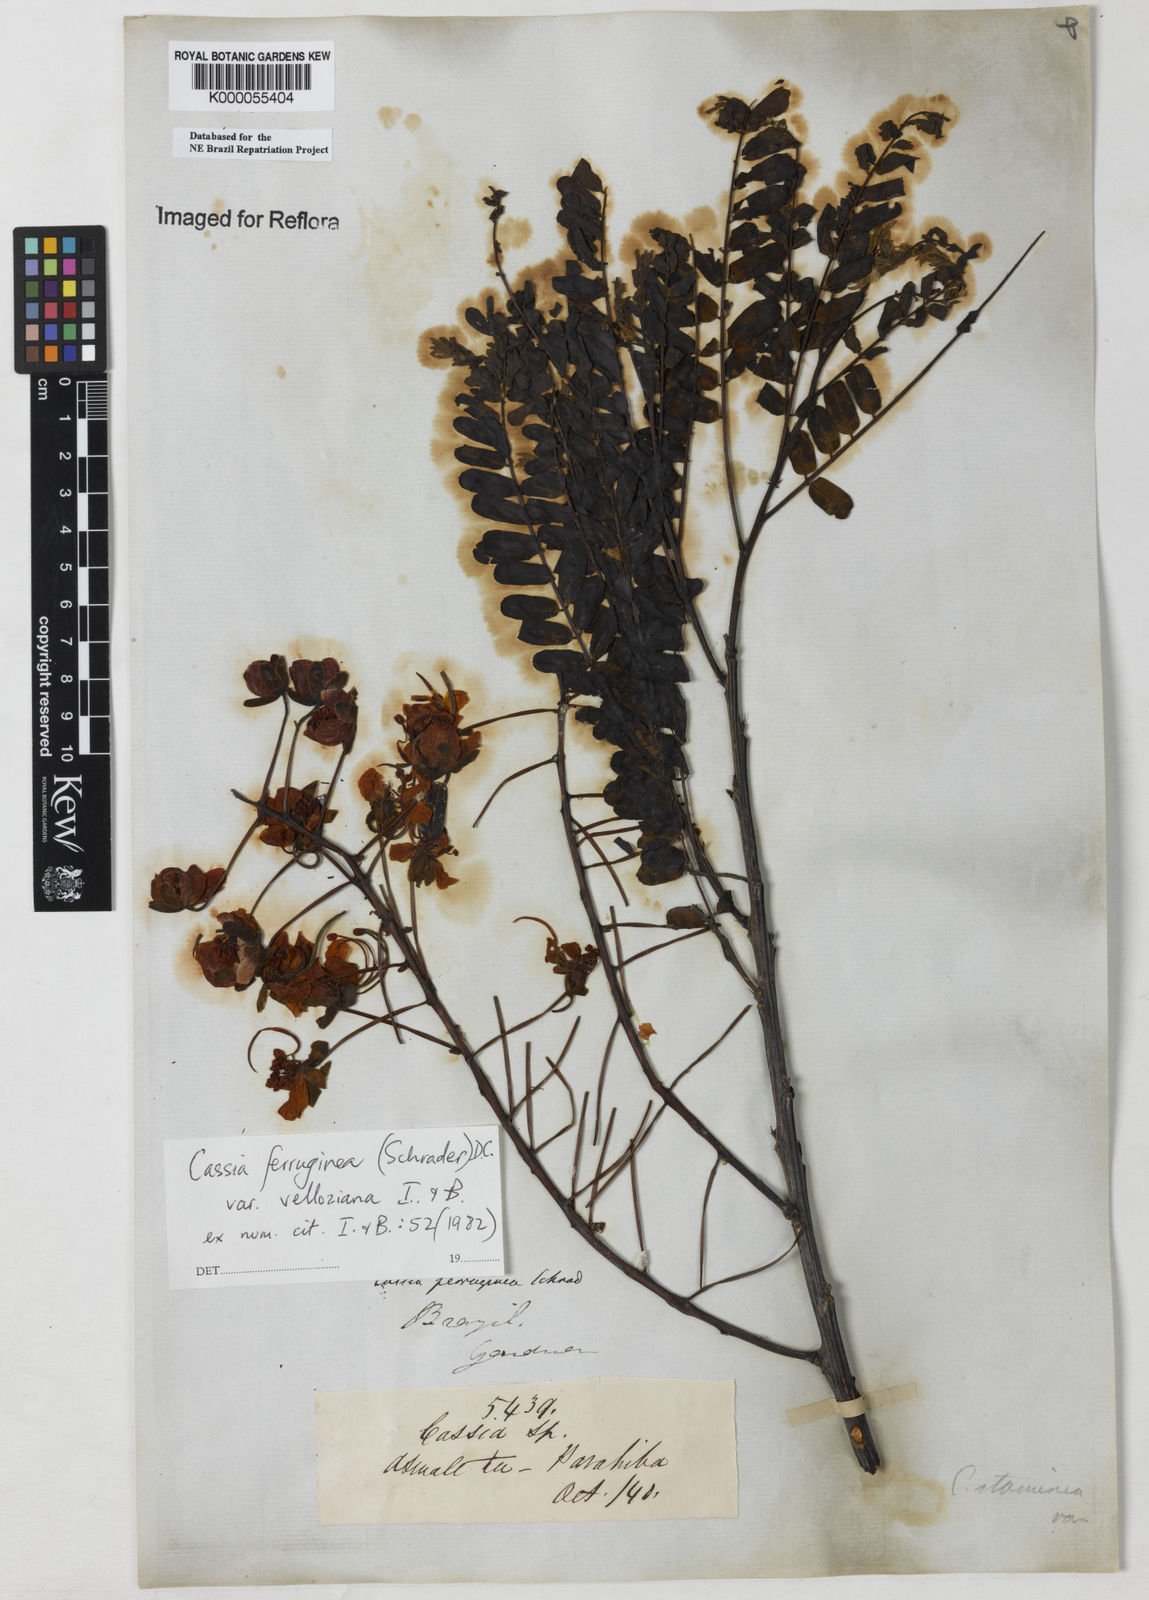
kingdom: Plantae
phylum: Tracheophyta
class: Magnoliopsida
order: Fabales
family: Fabaceae
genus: Cassia
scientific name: Cassia ferruginea
